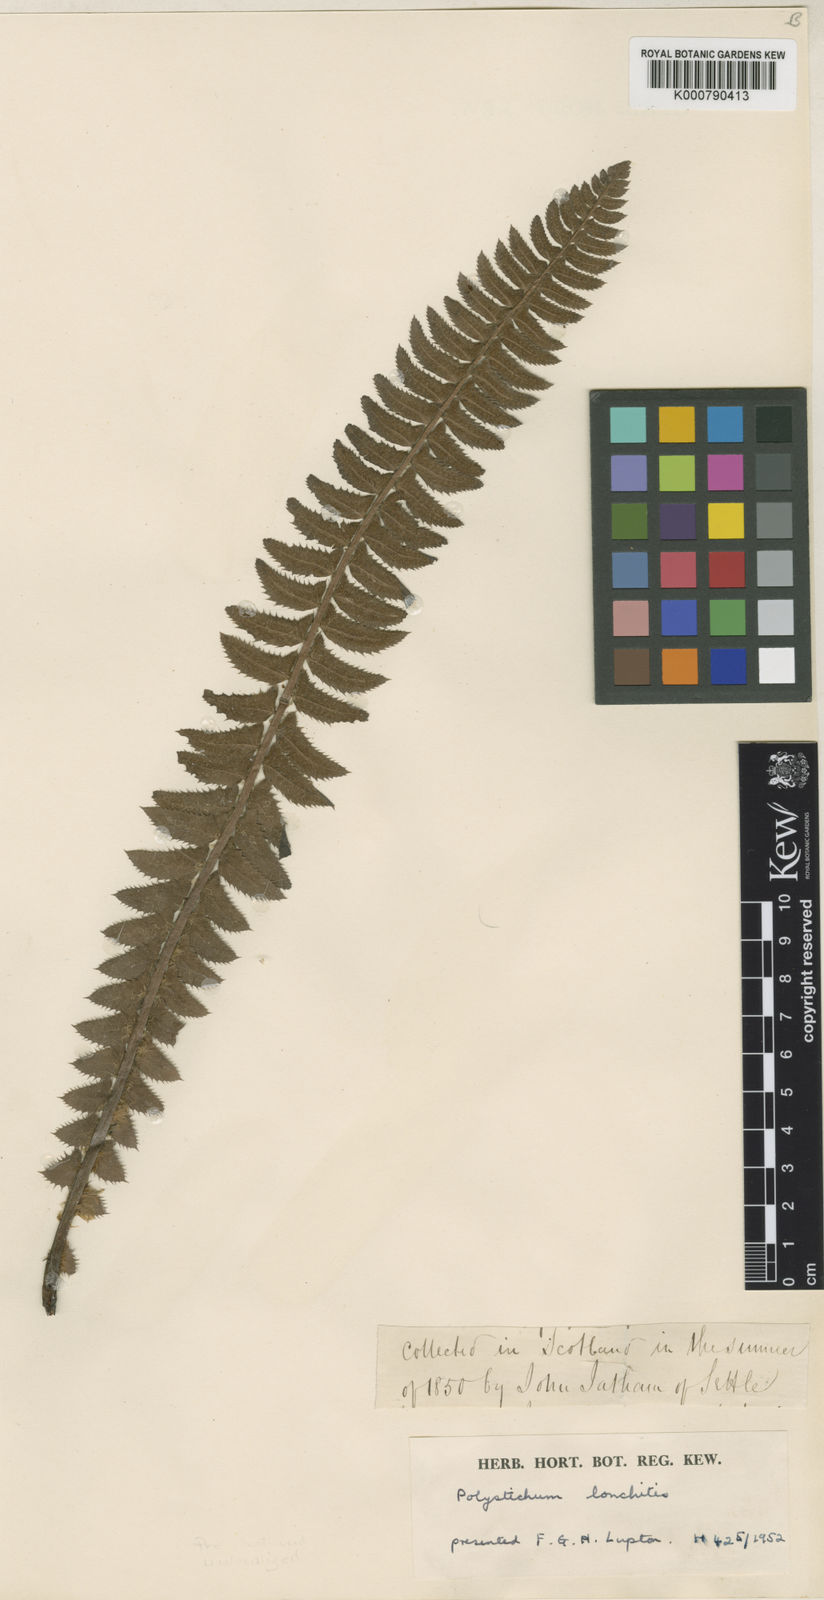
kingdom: Plantae
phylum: Tracheophyta
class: Polypodiopsida
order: Polypodiales
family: Dryopteridaceae
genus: Polystichum
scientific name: Polystichum
